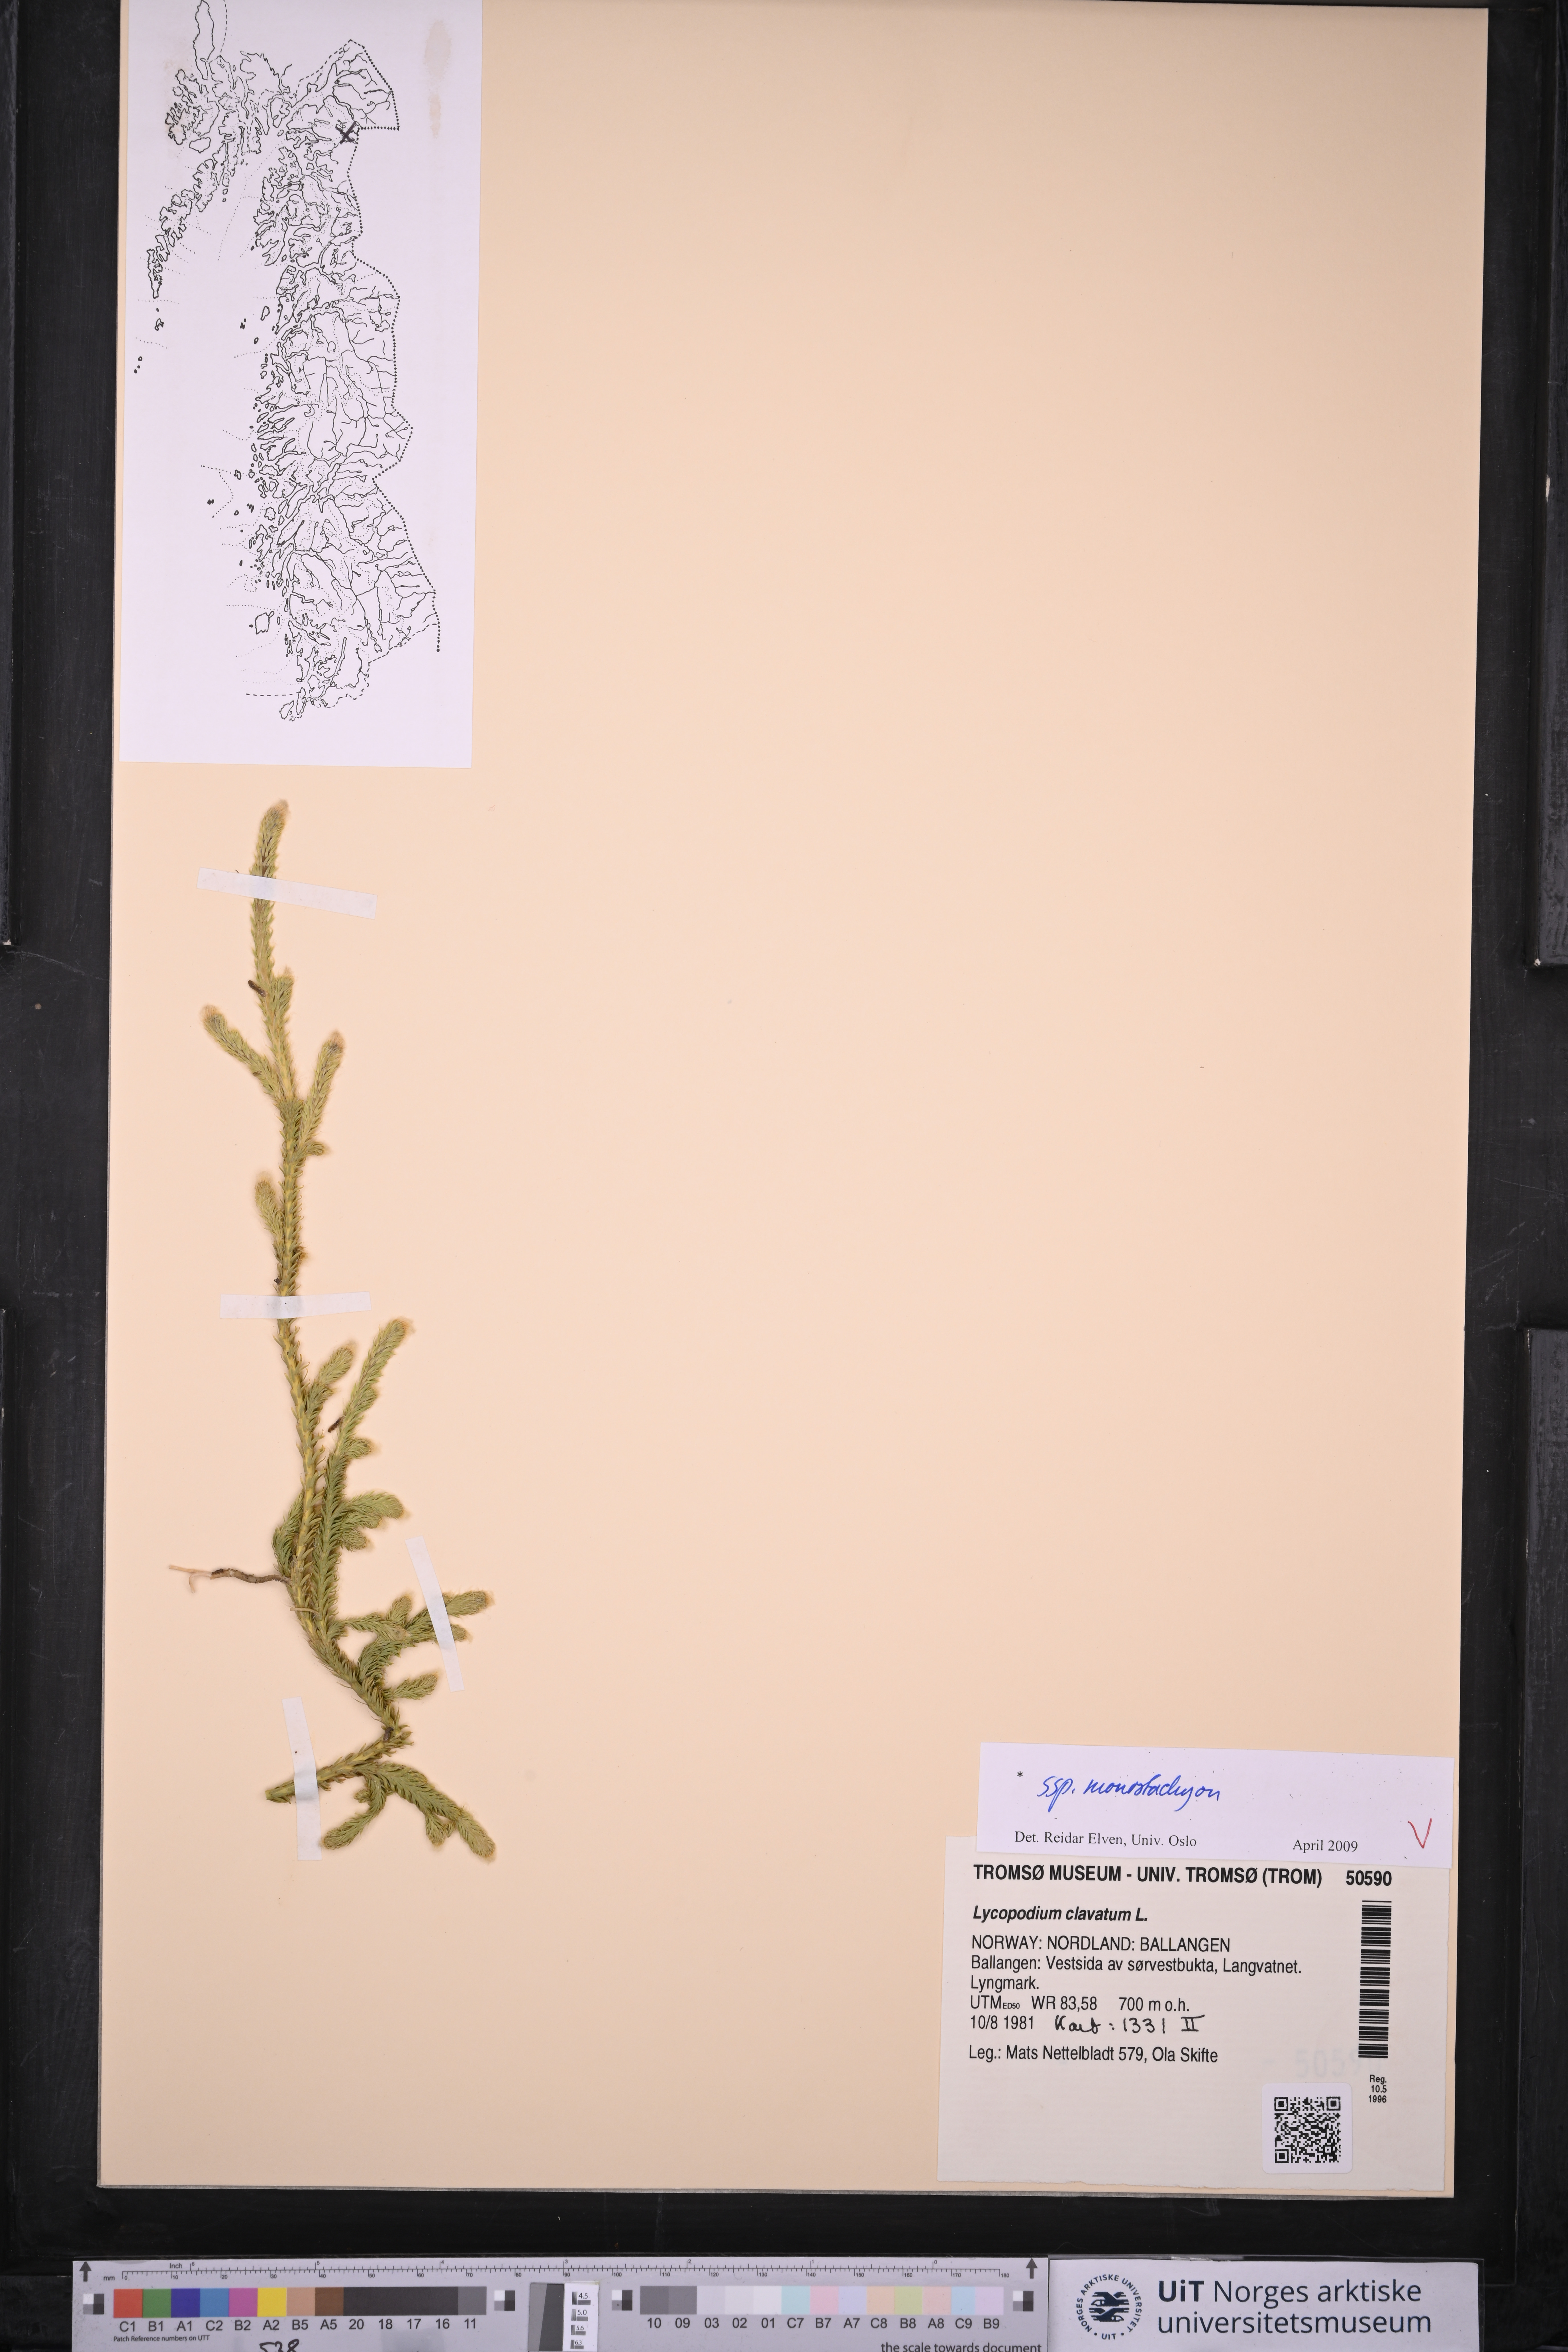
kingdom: Plantae
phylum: Tracheophyta
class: Lycopodiopsida
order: Lycopodiales
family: Lycopodiaceae
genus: Lycopodium
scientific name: Lycopodium lagopus
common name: One-cone clubmoss
